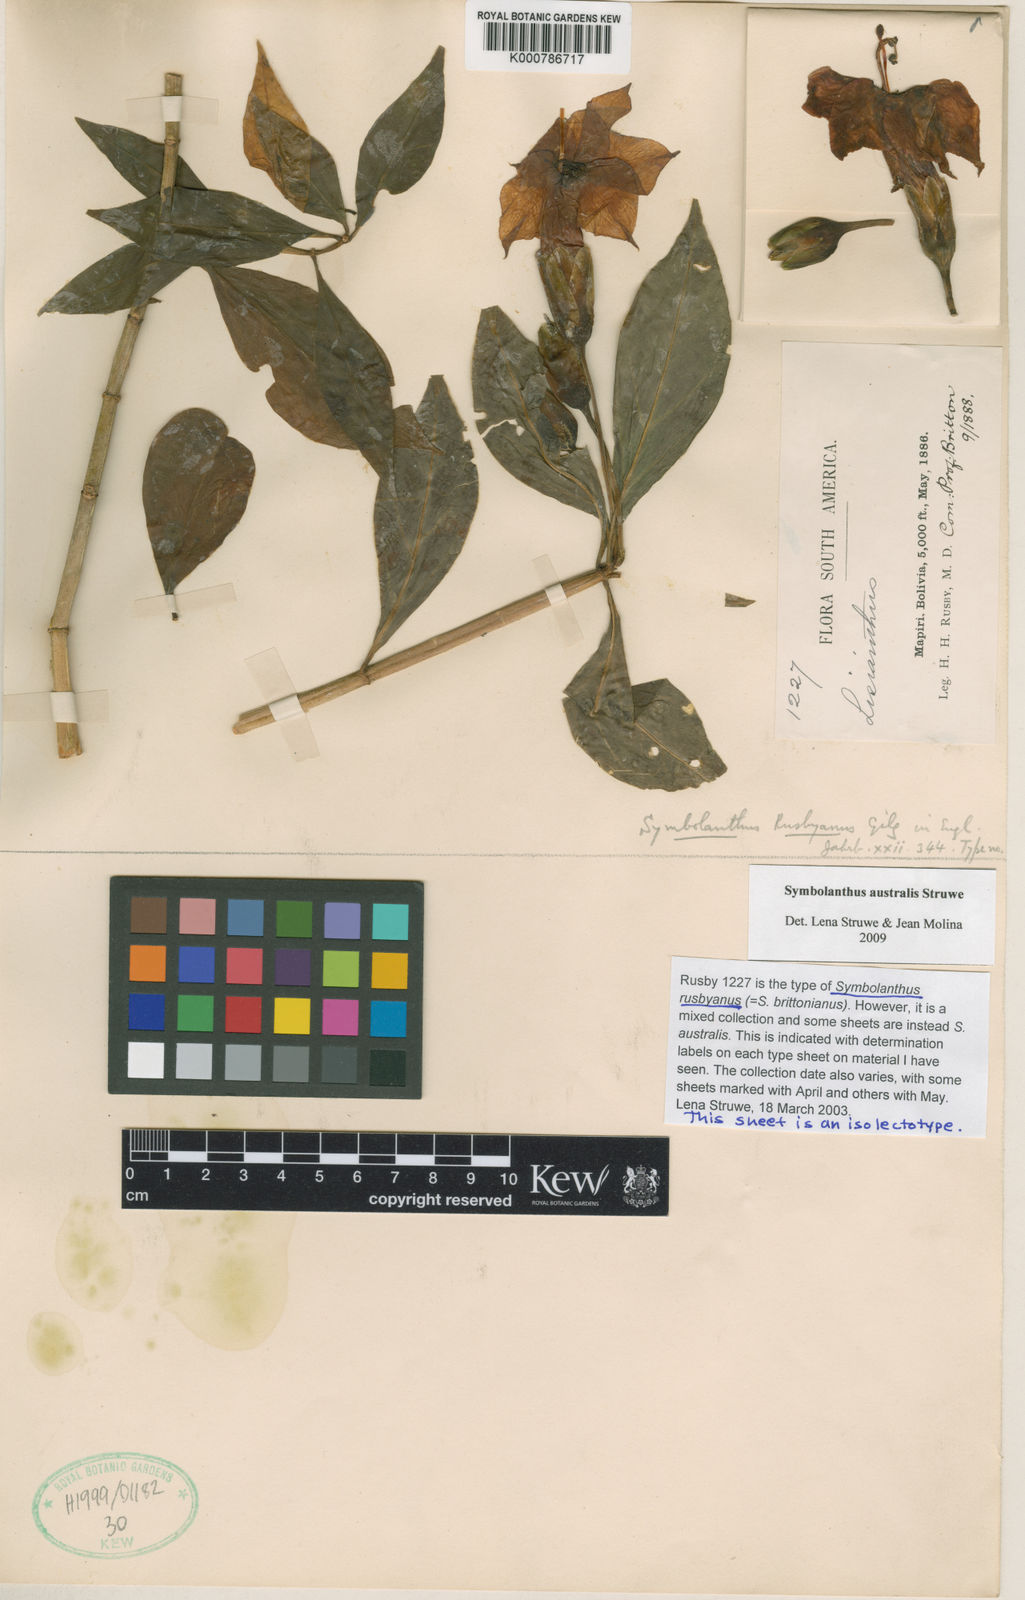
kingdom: Plantae
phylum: Tracheophyta
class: Magnoliopsida
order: Gentianales
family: Gentianaceae
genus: Symbolanthus
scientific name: Symbolanthus brittonianus
